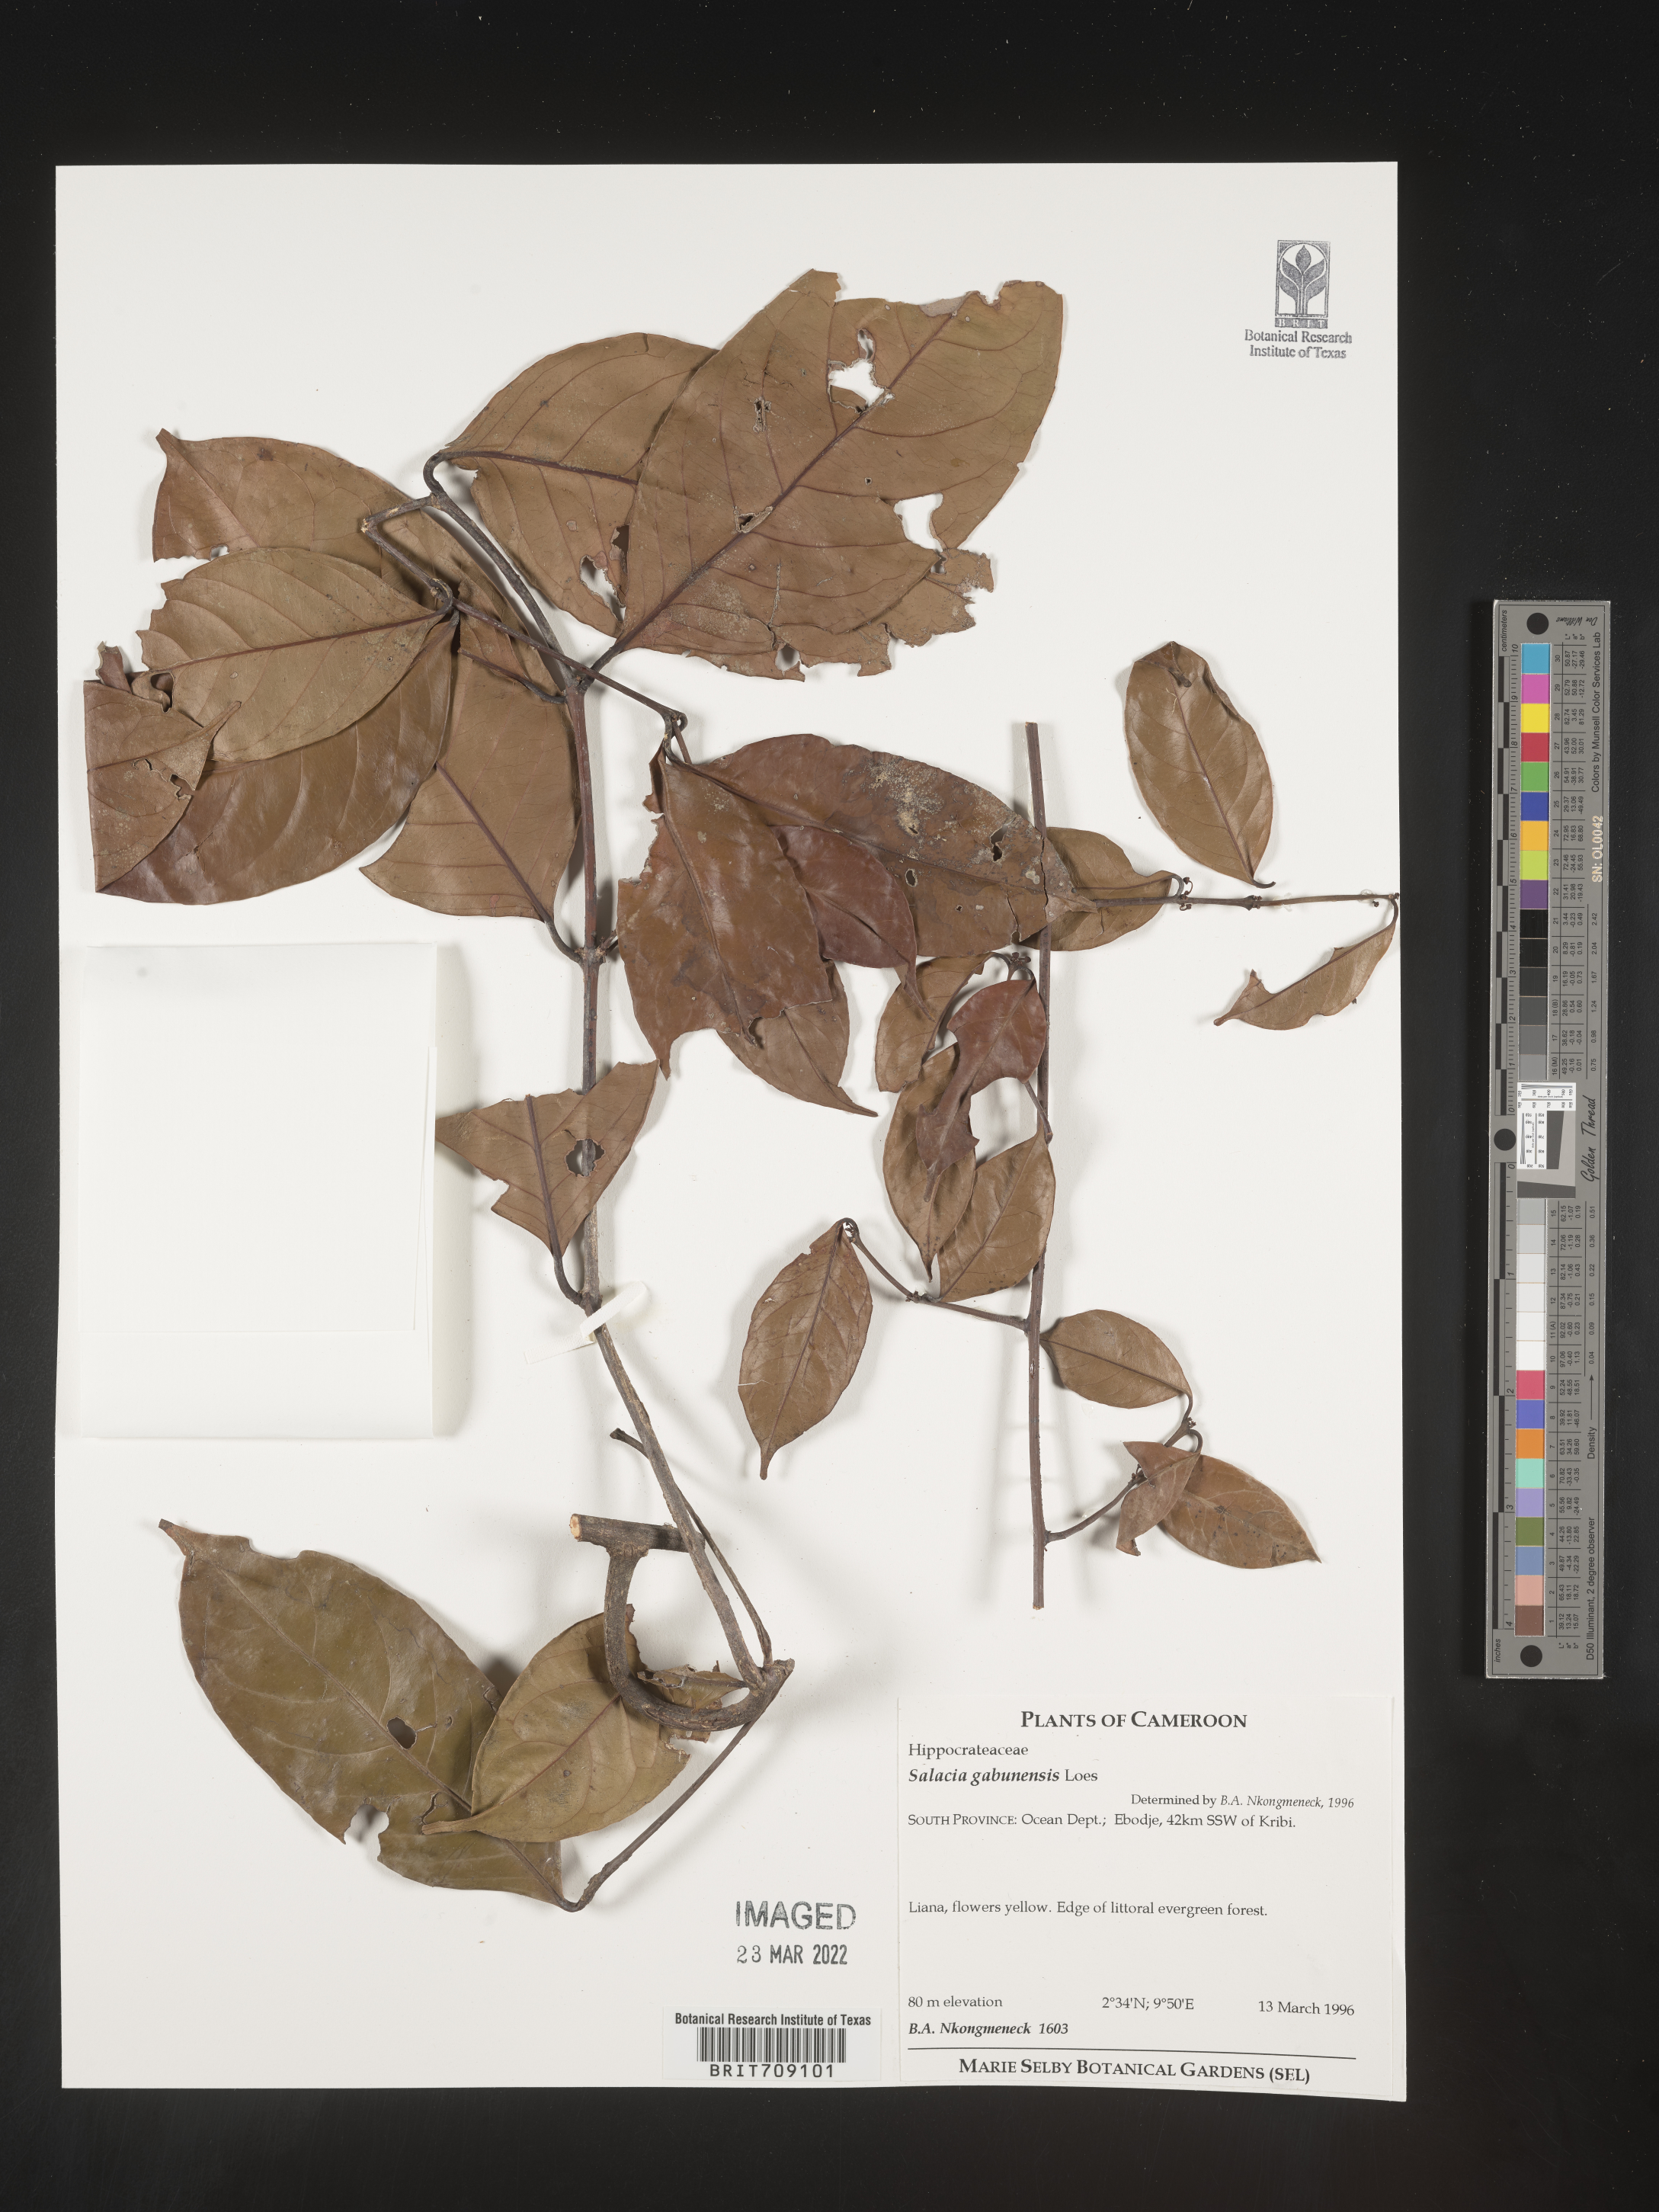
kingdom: Plantae
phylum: Tracheophyta
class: Magnoliopsida
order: Celastrales
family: Celastraceae
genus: Salacia
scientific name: Salacia
